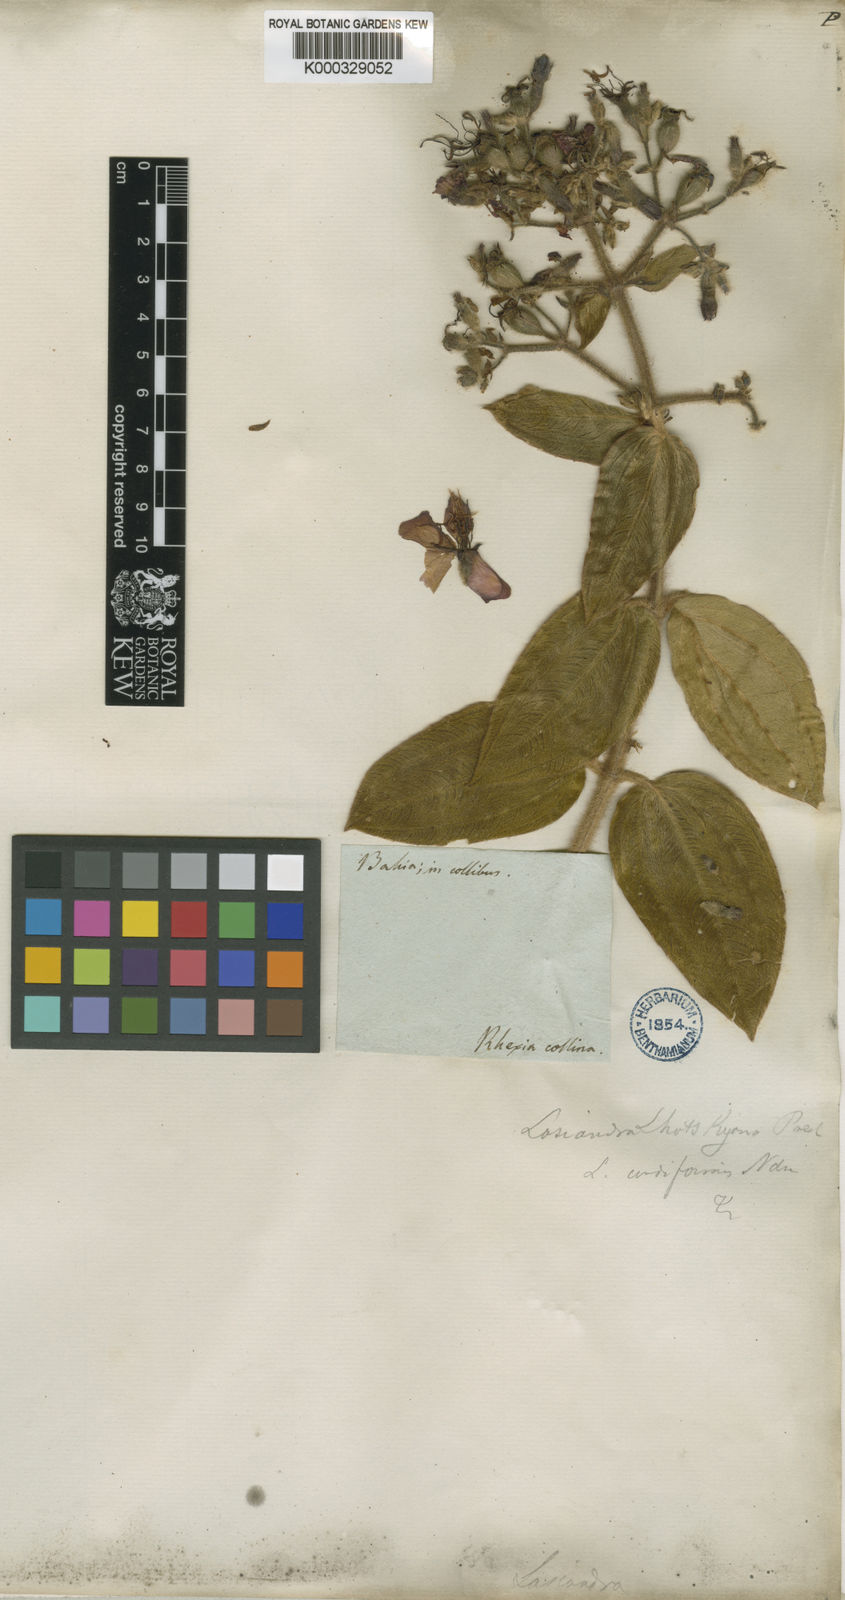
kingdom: Plantae
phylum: Tracheophyta
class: Magnoliopsida
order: Myrtales
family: Melastomataceae
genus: Chaetogastra
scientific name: Chaetogastra lhotskyana
